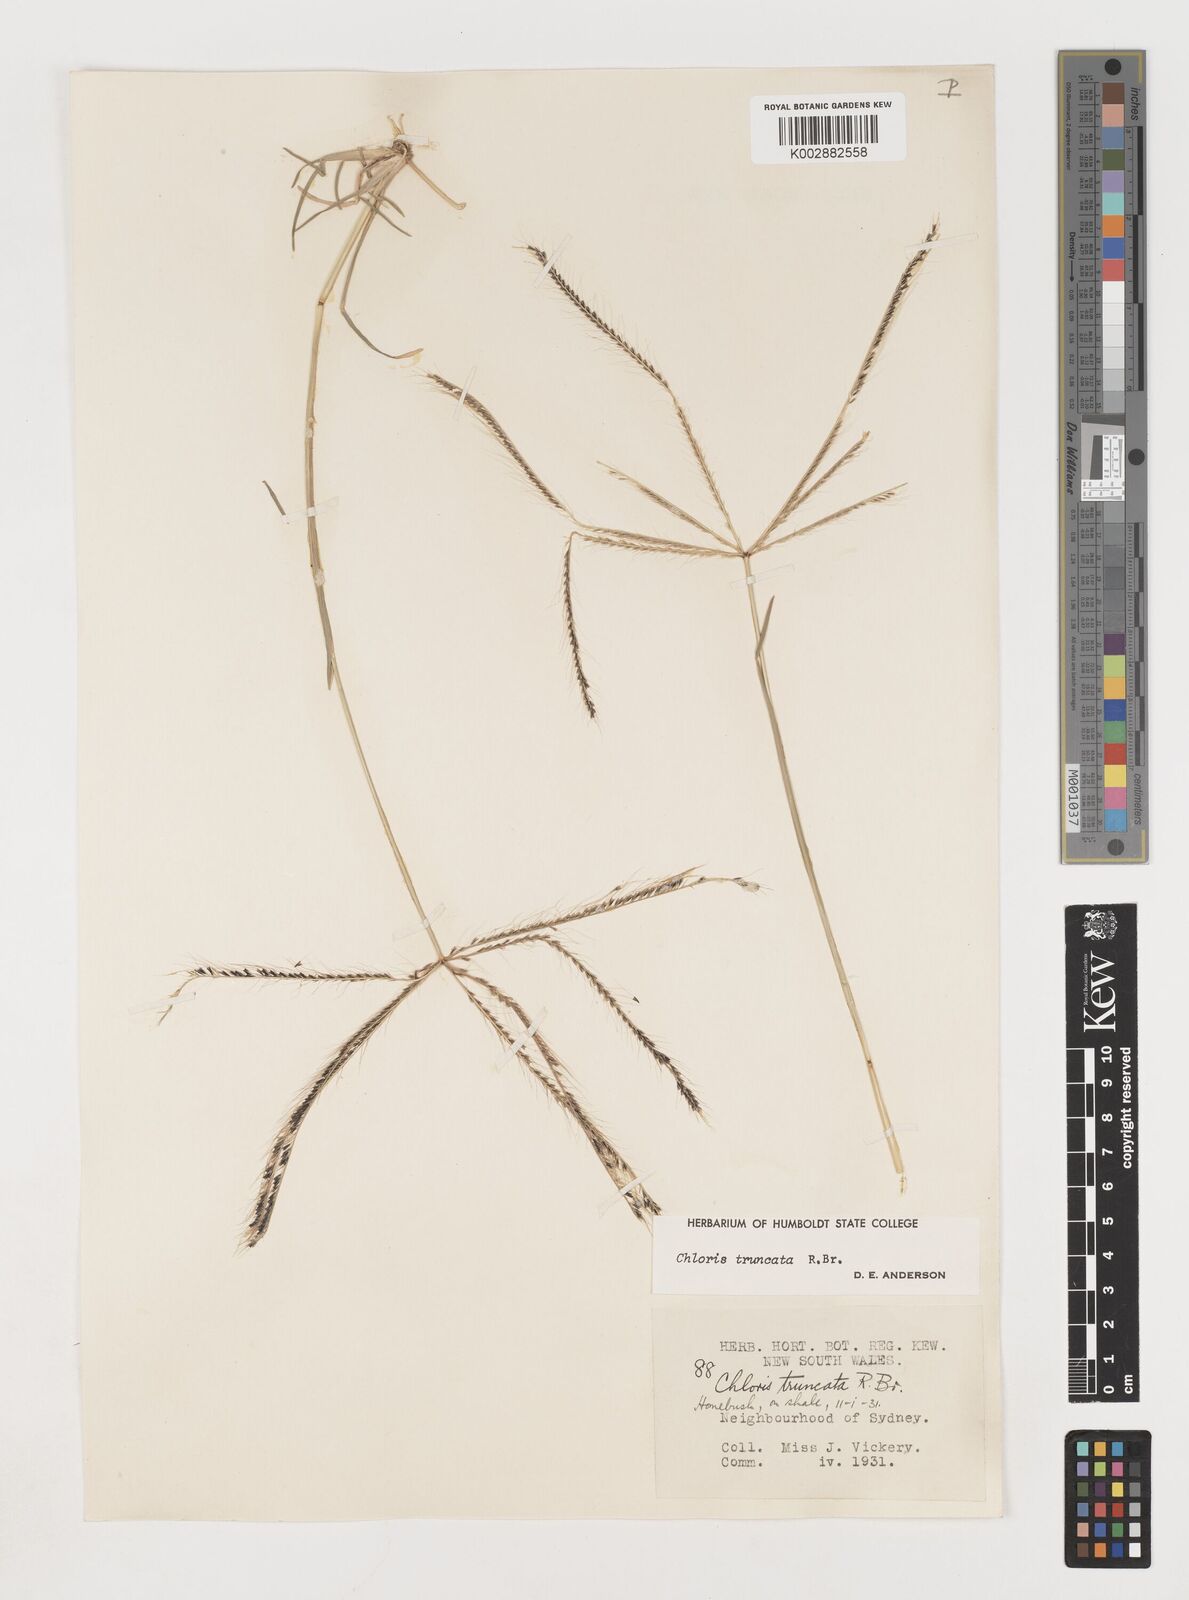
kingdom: Plantae
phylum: Tracheophyta
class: Liliopsida
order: Poales
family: Poaceae
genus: Chloris
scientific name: Chloris truncata
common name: Windmill-grass
